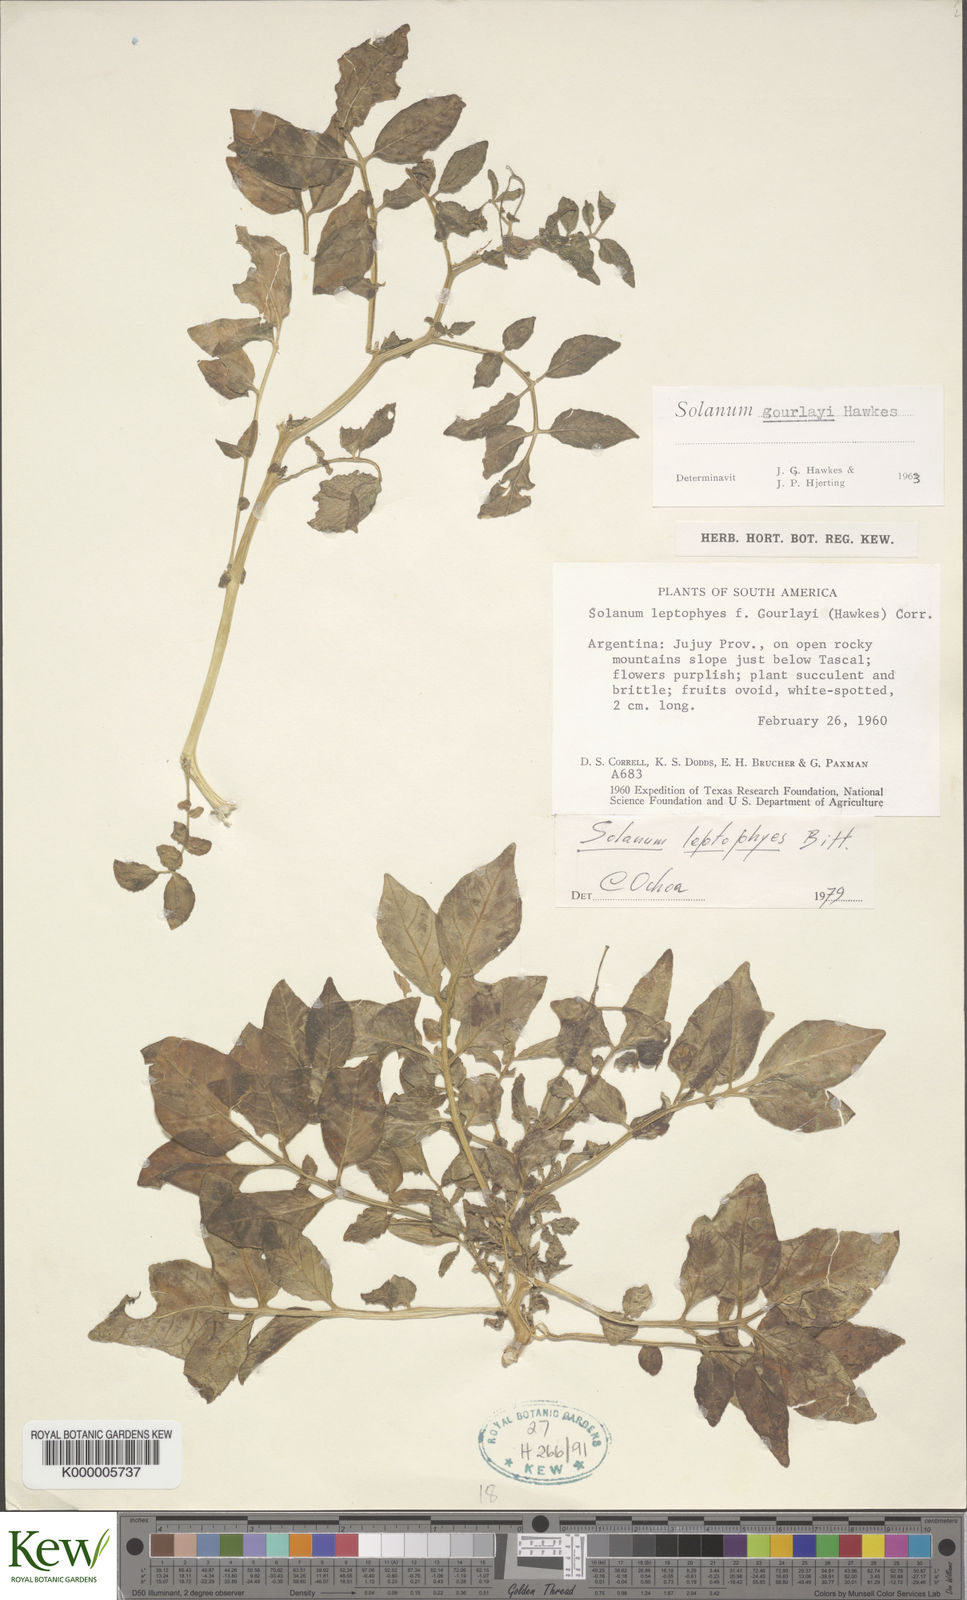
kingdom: Plantae
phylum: Tracheophyta
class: Magnoliopsida
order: Solanales
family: Solanaceae
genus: Solanum
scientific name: Solanum brevicaule
